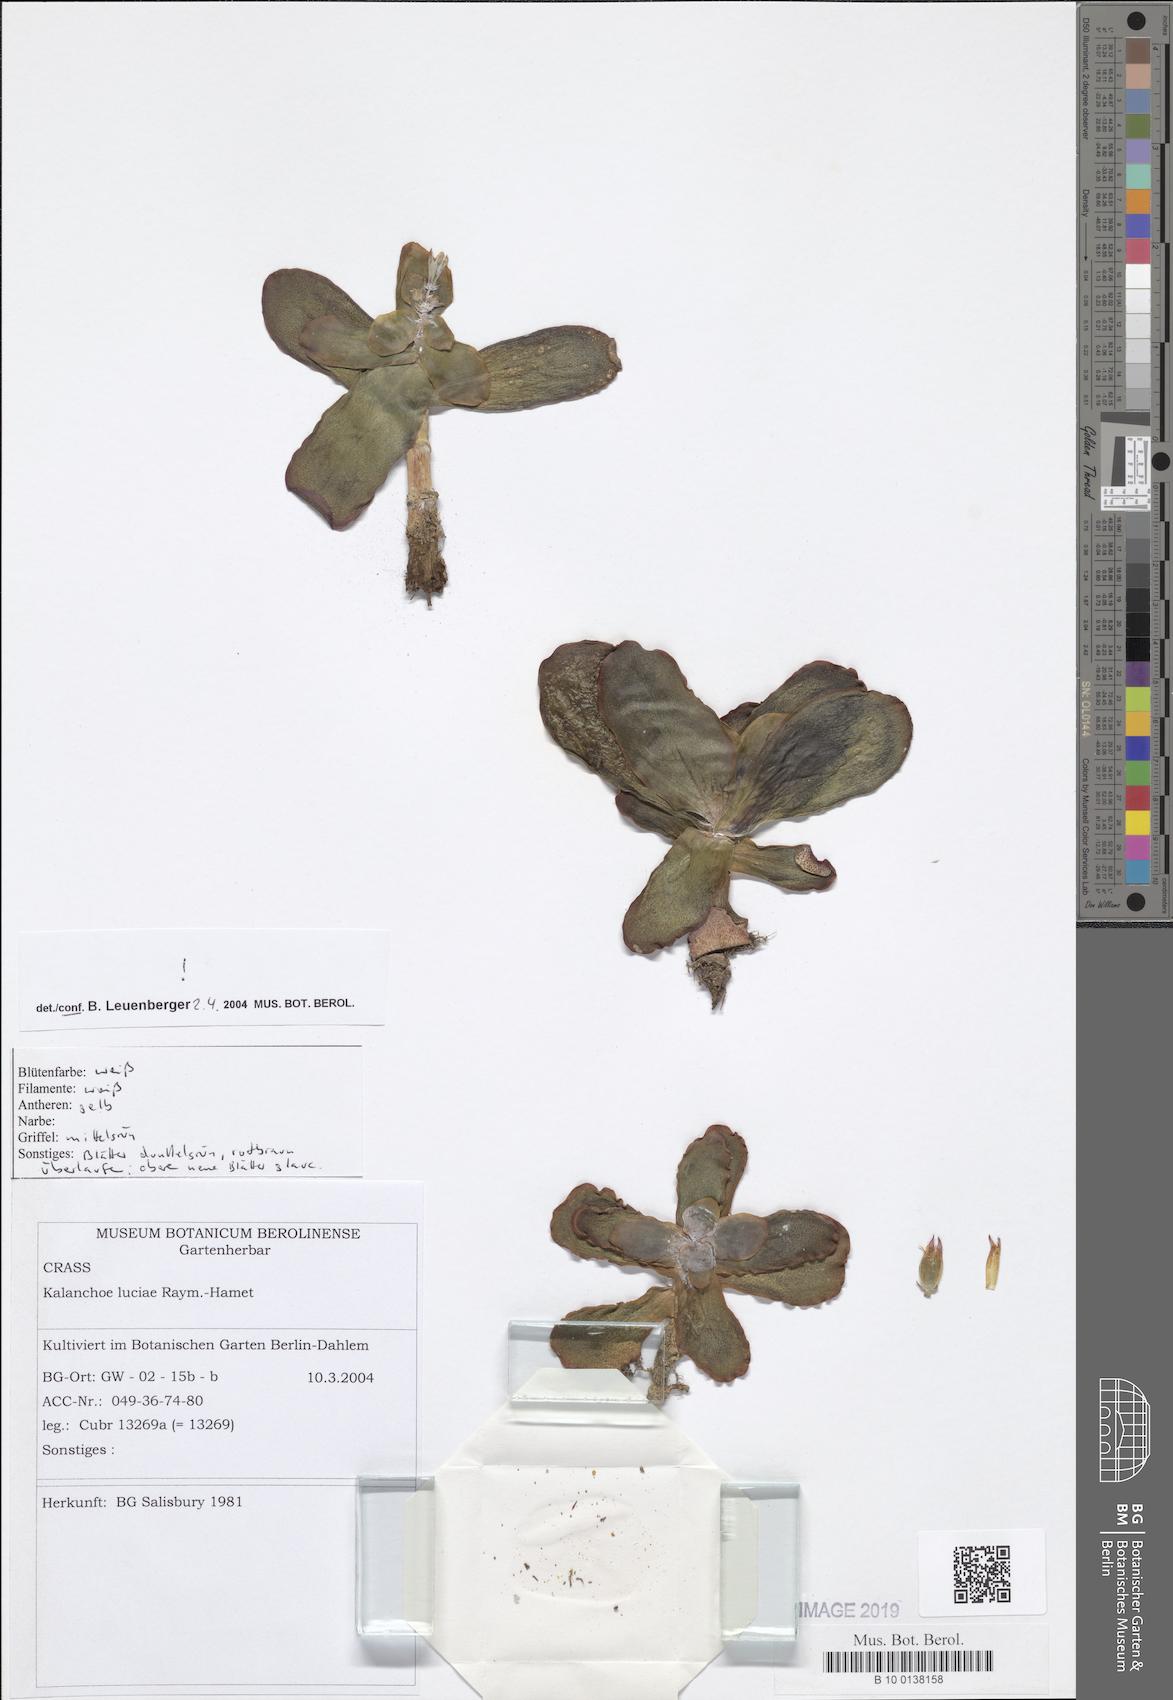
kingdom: Plantae
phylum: Tracheophyta
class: Magnoliopsida
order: Saxifragales
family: Crassulaceae
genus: Kalanchoe
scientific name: Kalanchoe luciae
